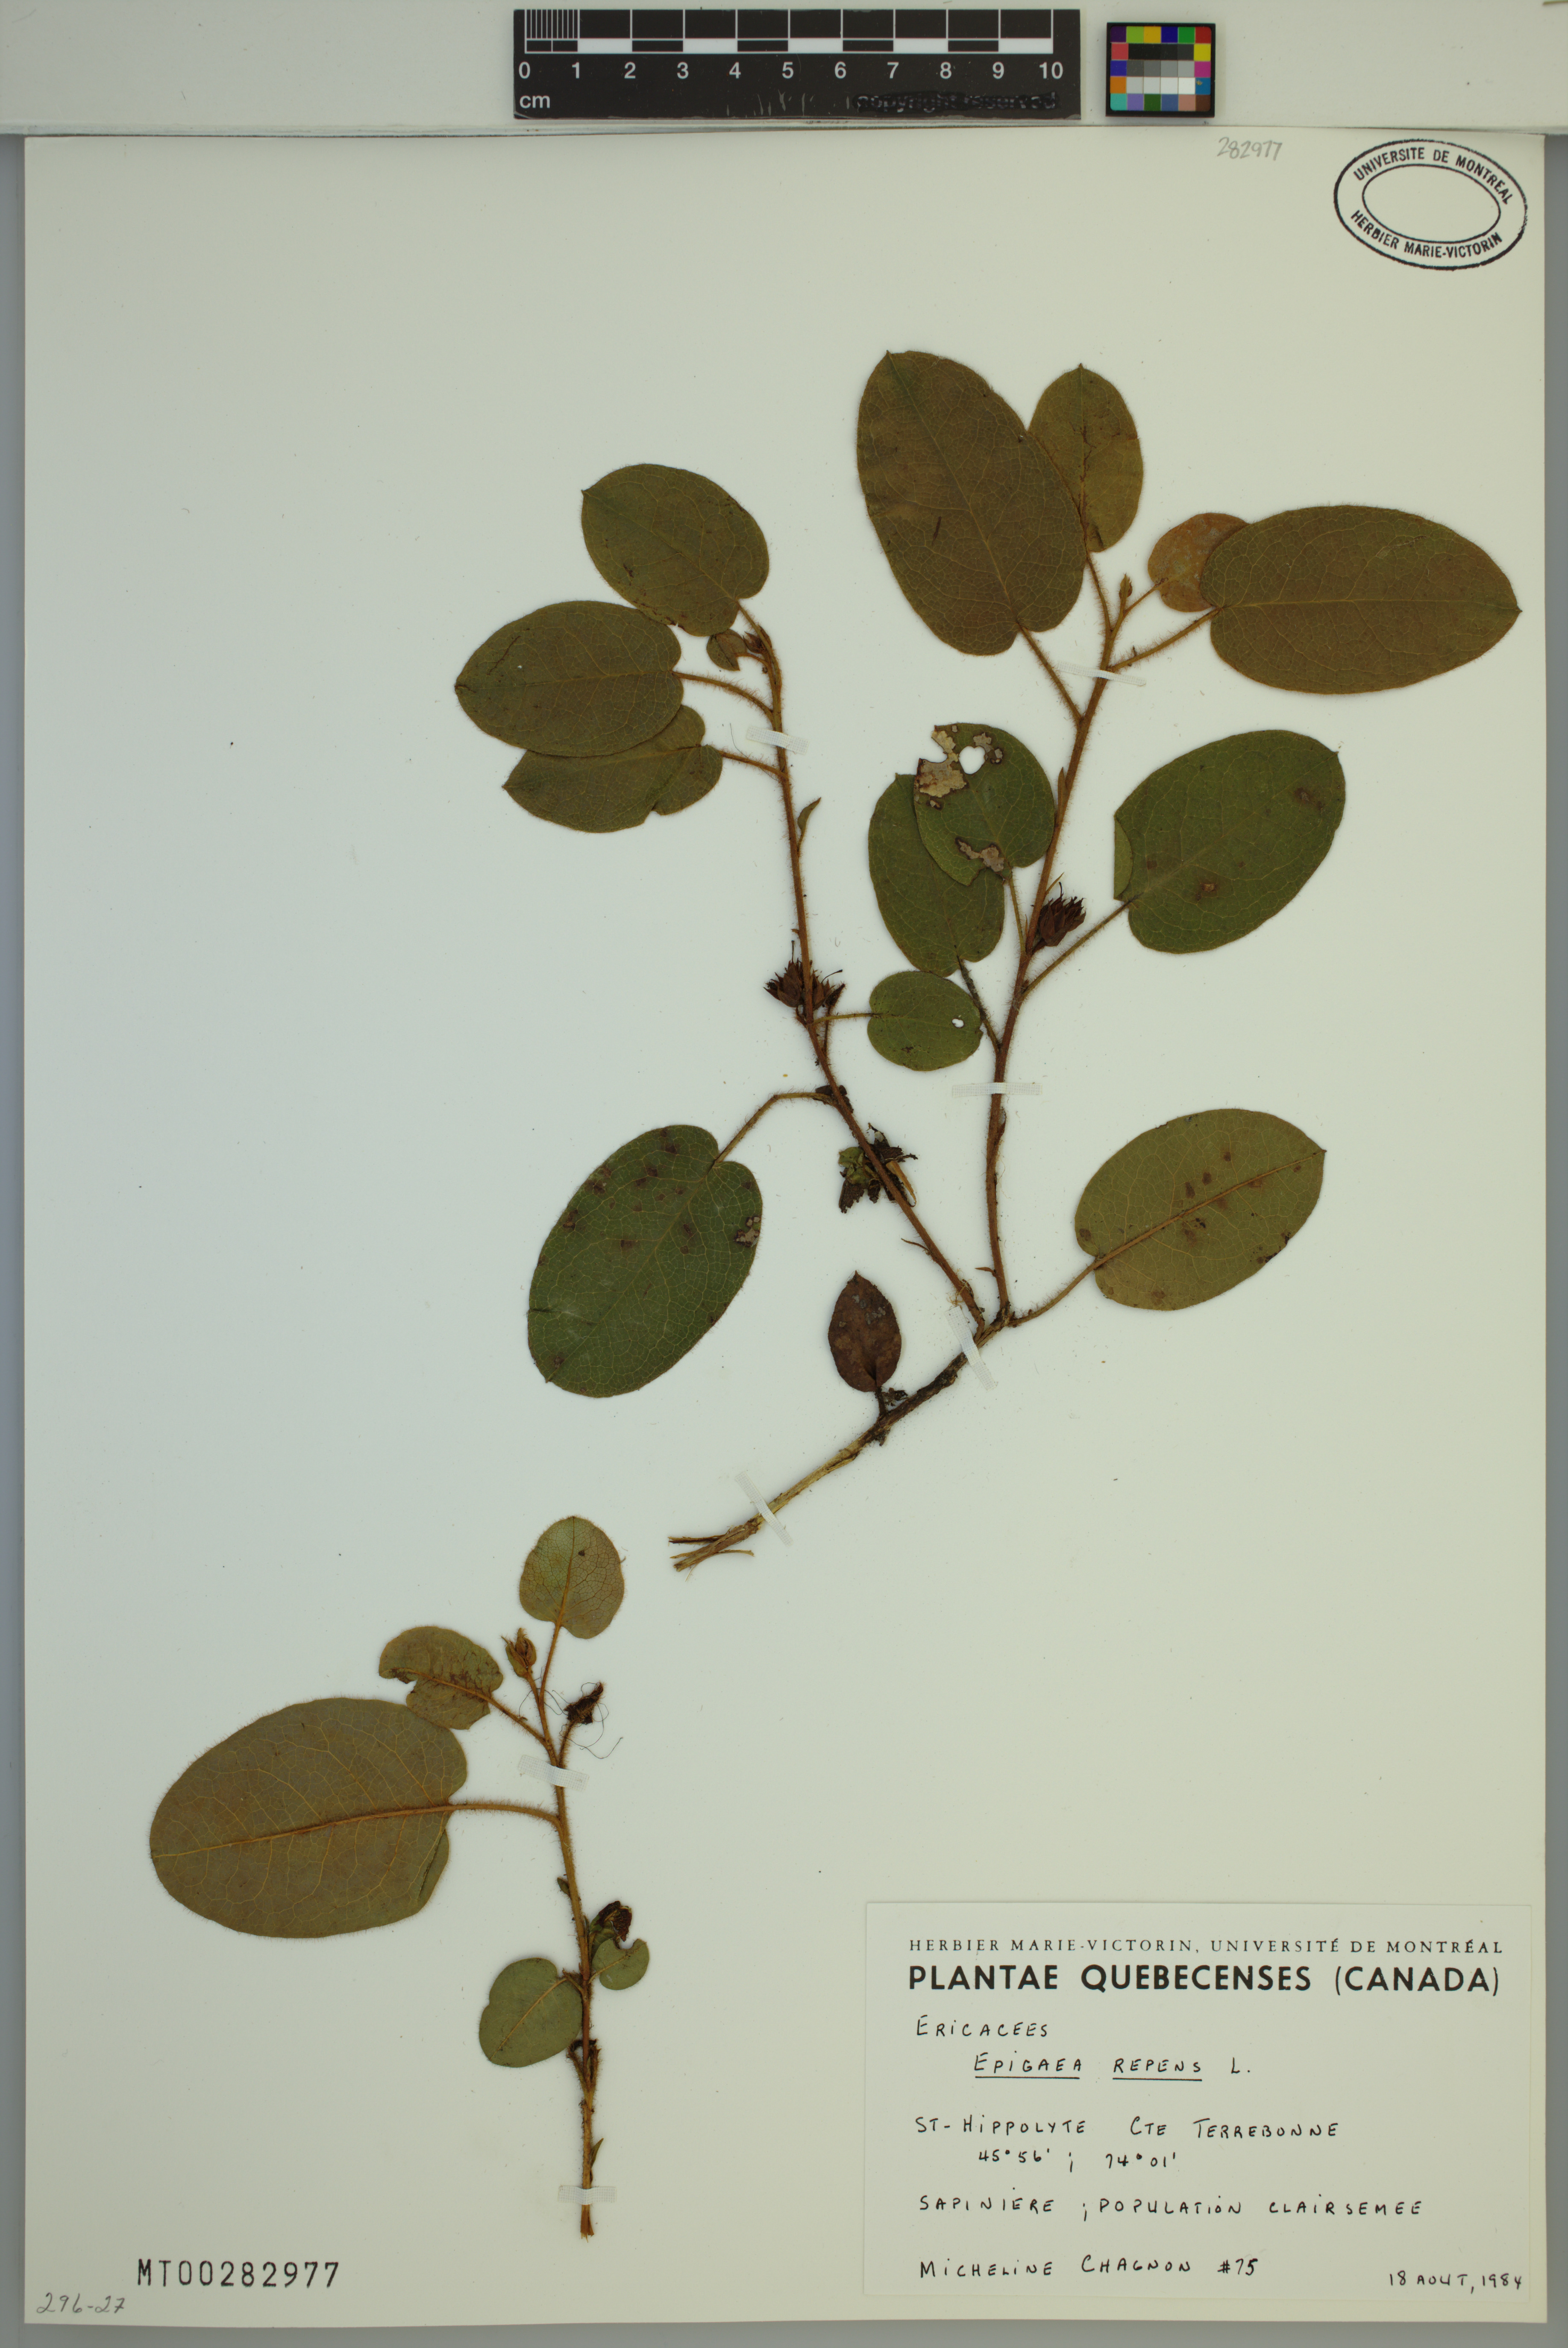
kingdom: Plantae
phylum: Tracheophyta
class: Magnoliopsida
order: Ericales
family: Ericaceae
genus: Epigaea
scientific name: Epigaea repens
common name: Gravelroot
